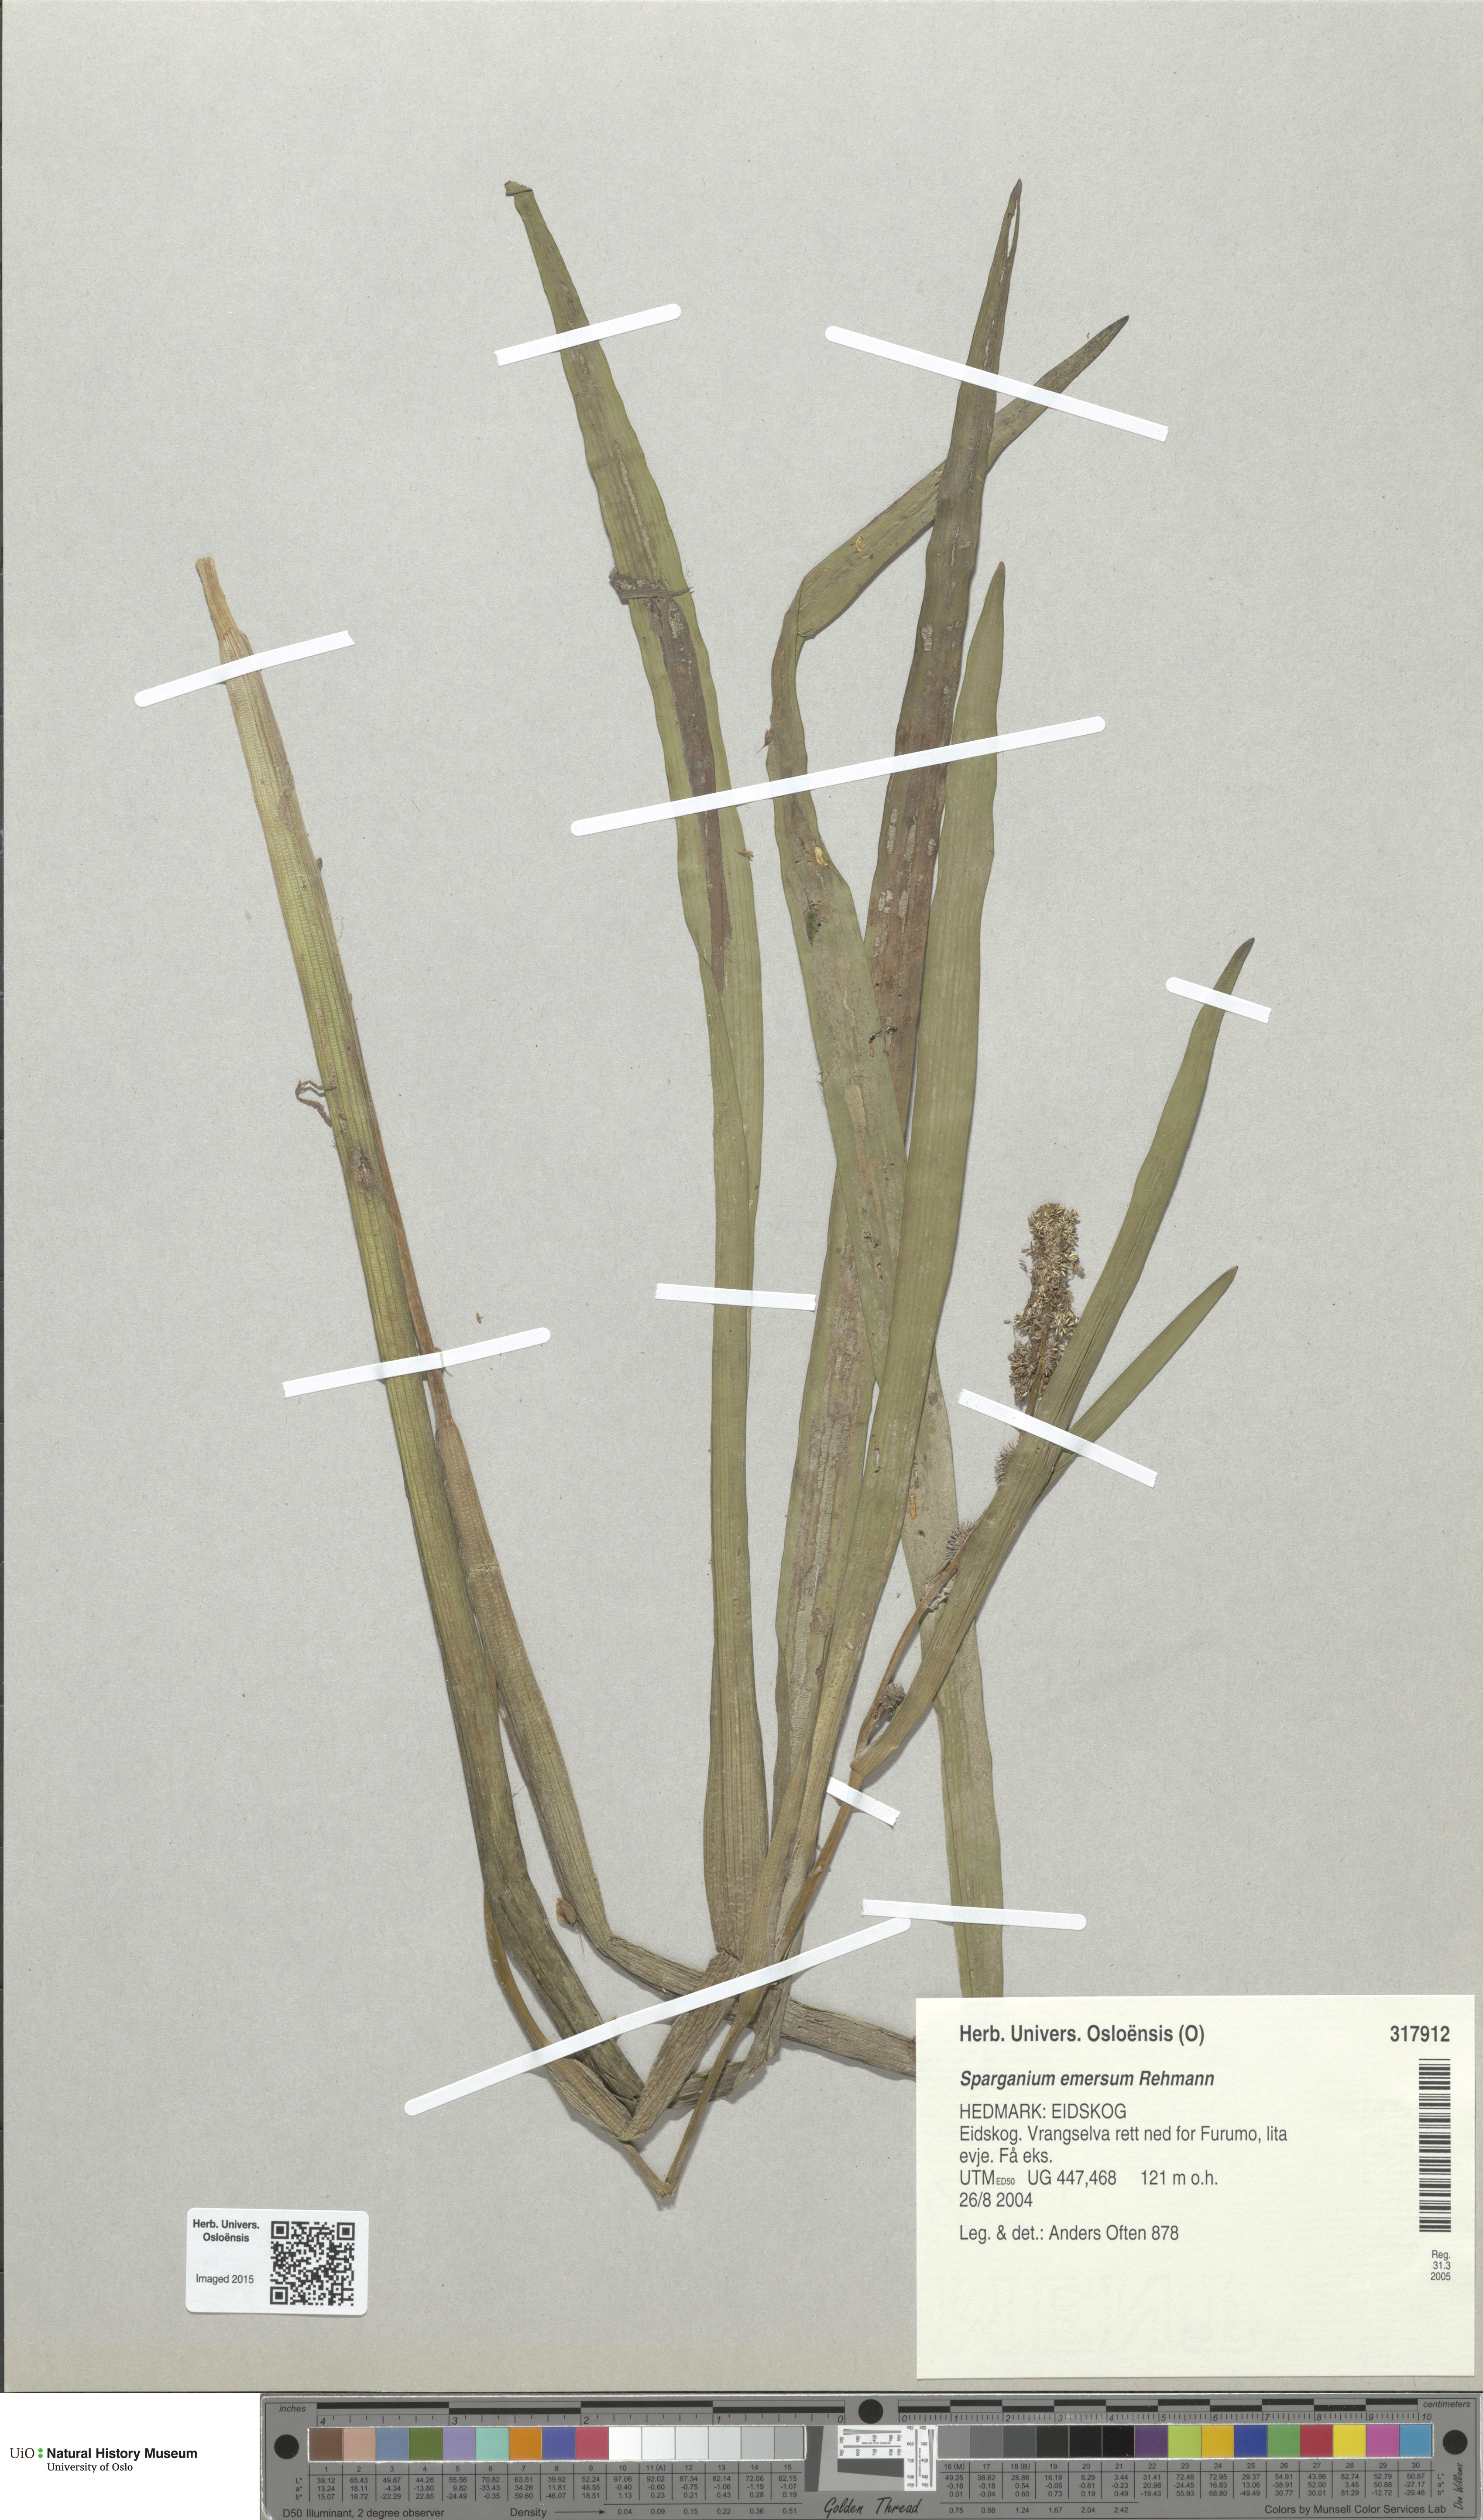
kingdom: Plantae
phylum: Tracheophyta
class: Liliopsida
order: Poales
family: Typhaceae
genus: Sparganium
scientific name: Sparganium emersum
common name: Unbranched bur-reed
